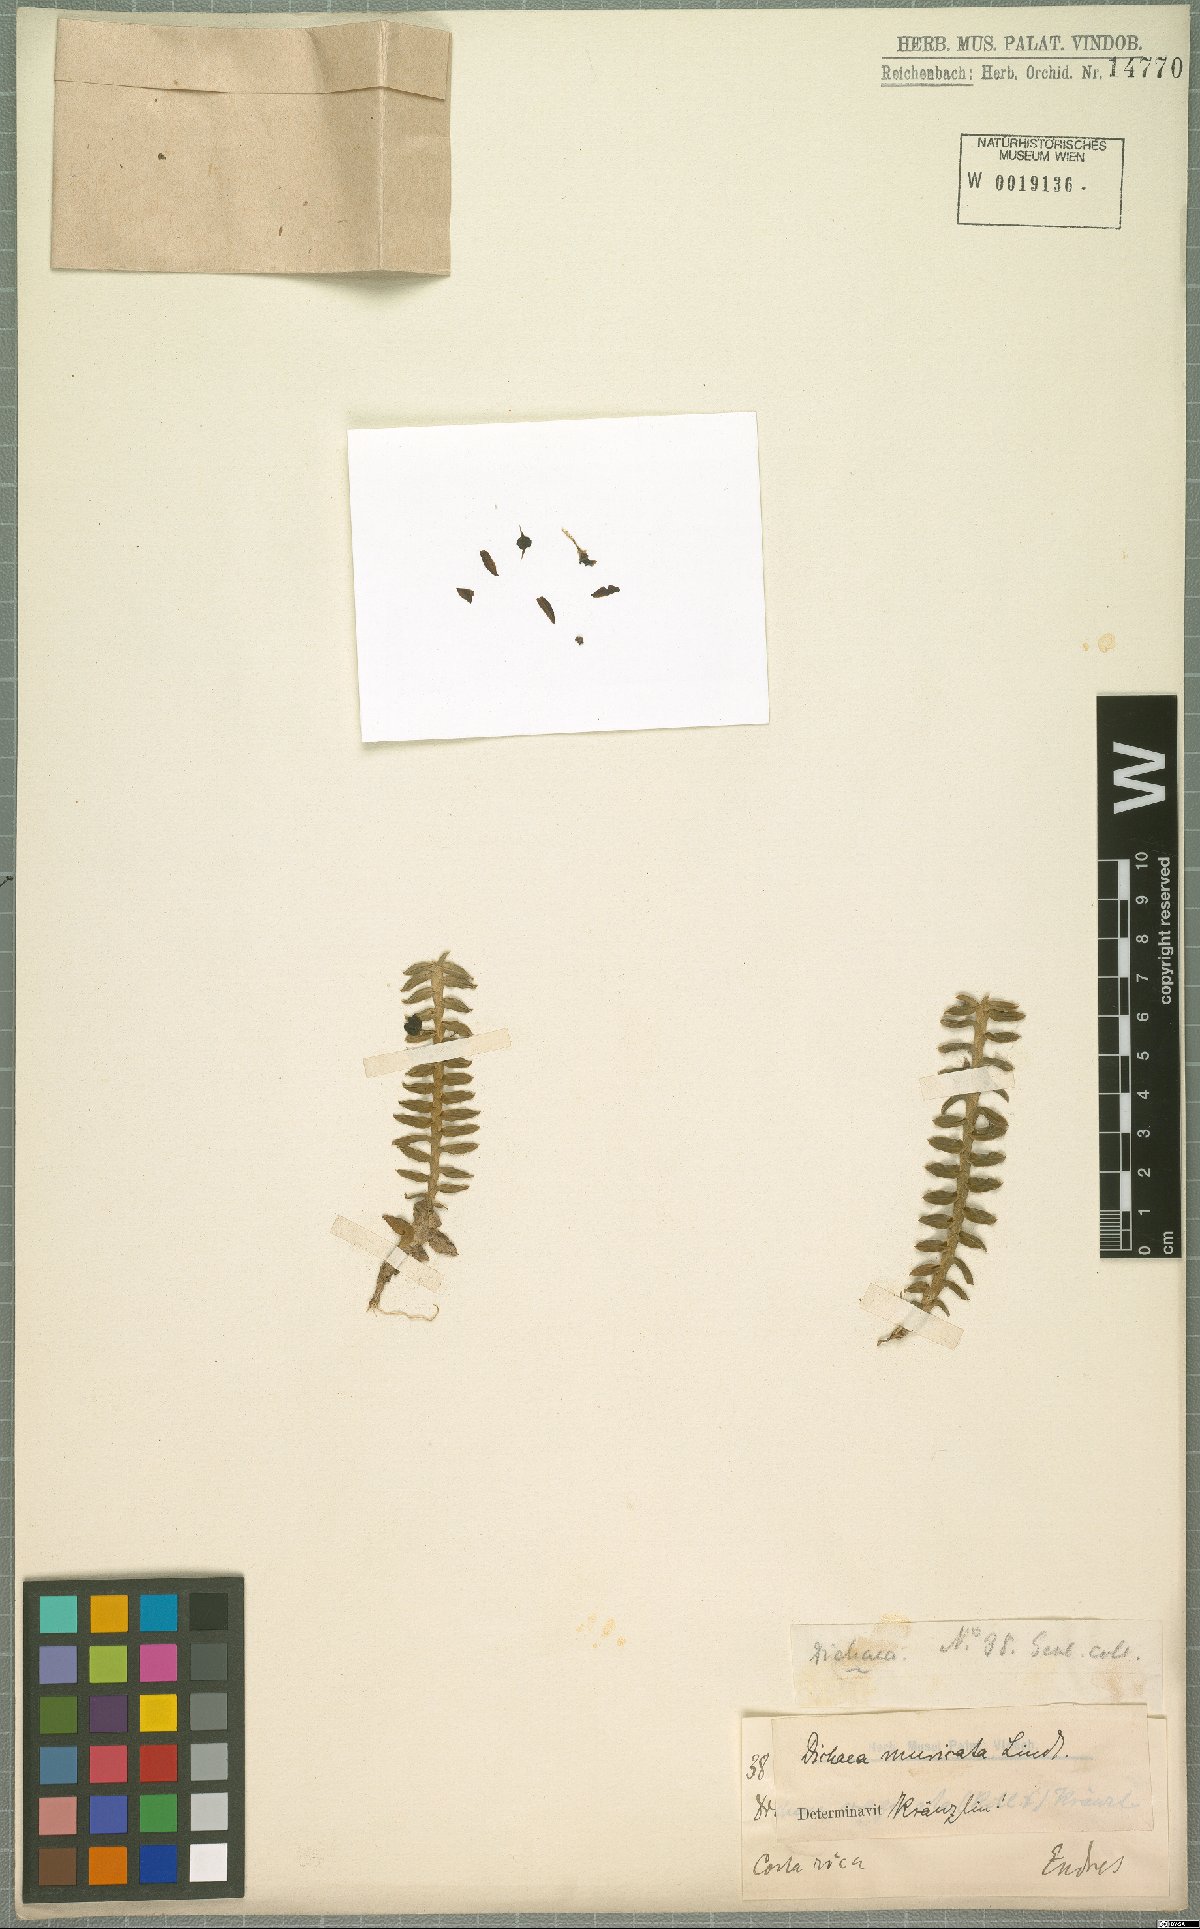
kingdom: Plantae
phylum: Tracheophyta
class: Liliopsida
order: Asparagales
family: Orchidaceae
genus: Dichaea
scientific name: Dichaea morrisii
